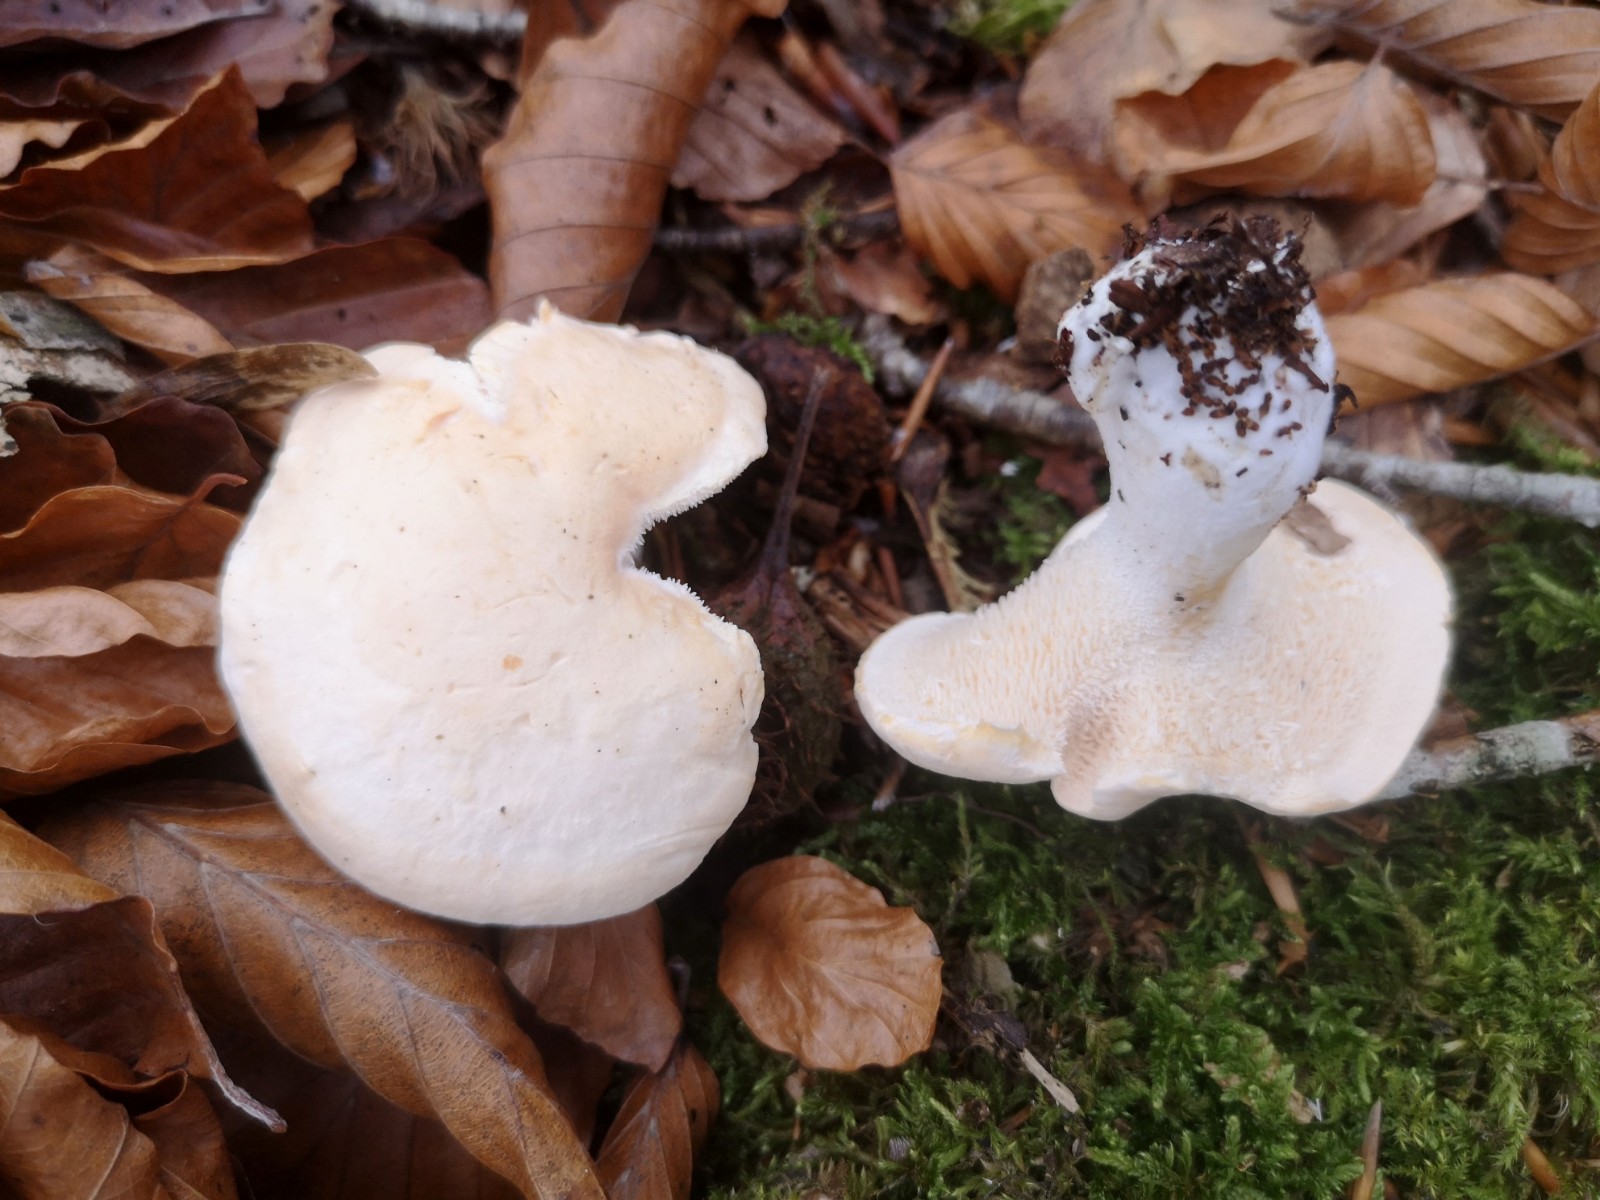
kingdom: Fungi
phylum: Basidiomycota
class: Agaricomycetes
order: Cantharellales
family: Hydnaceae
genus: Hydnum
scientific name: Hydnum repandum
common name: almindelig pigsvamp
